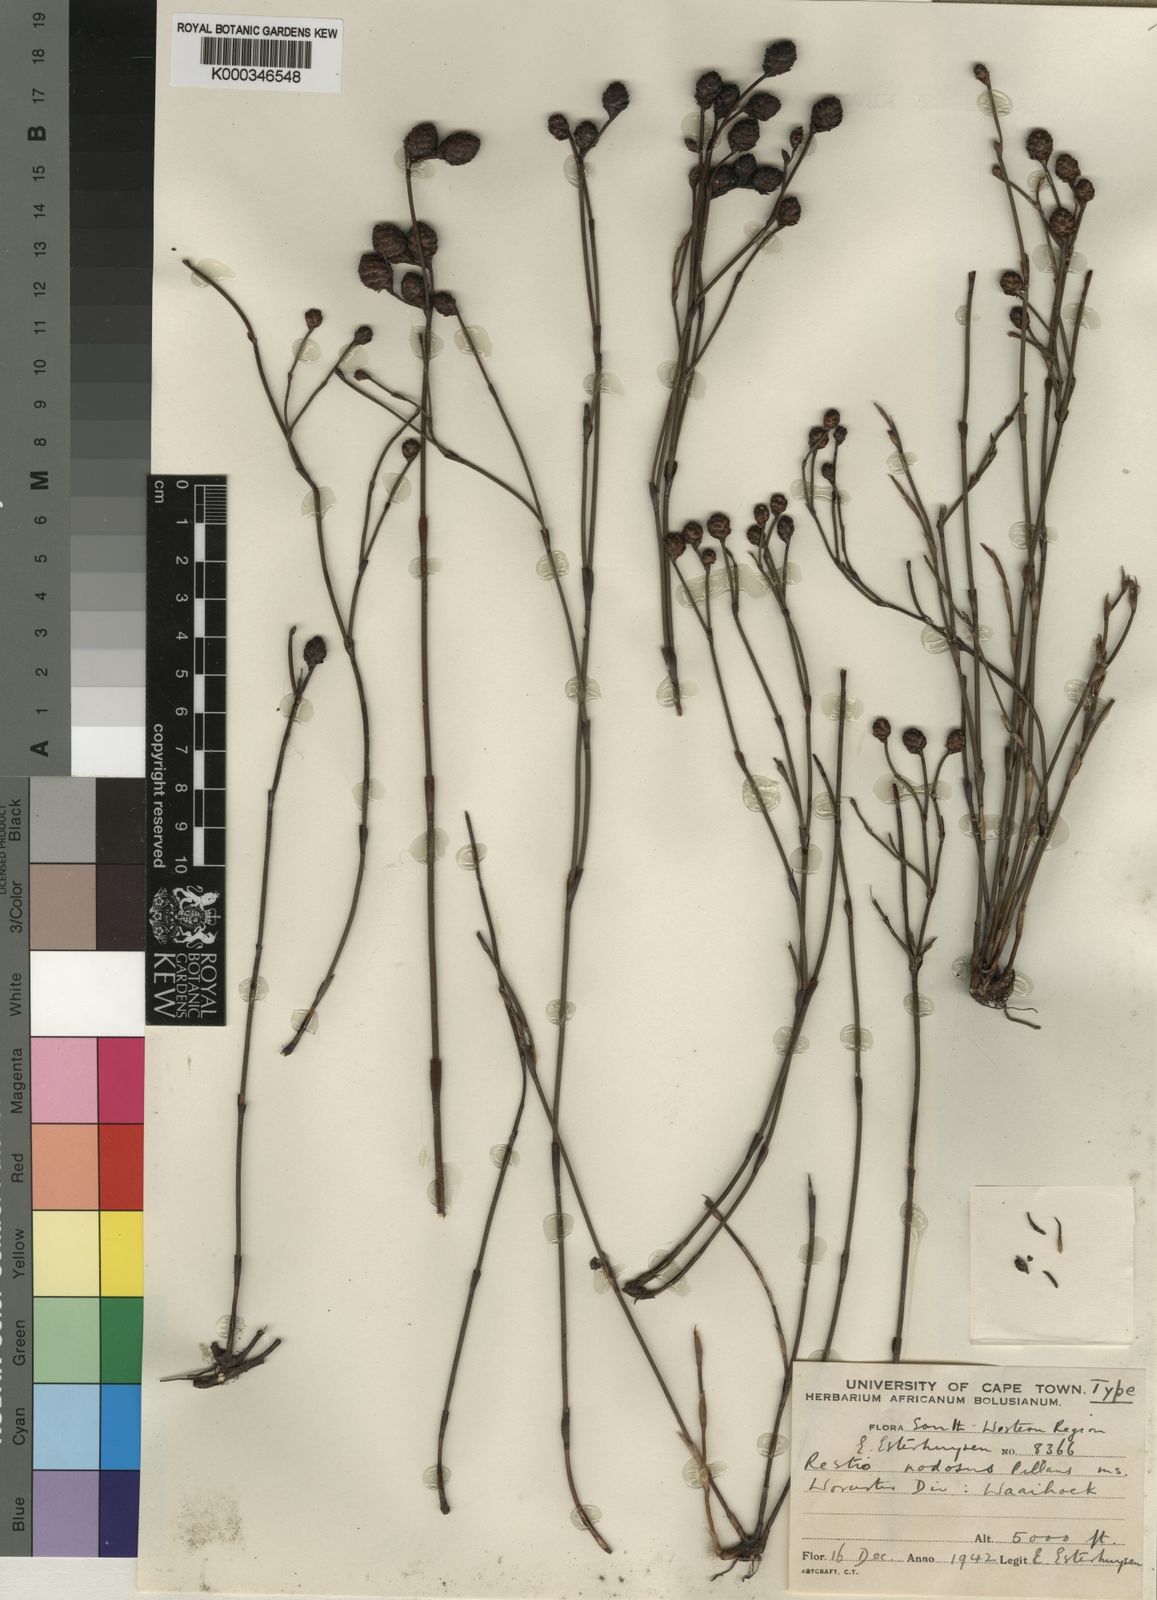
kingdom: Plantae
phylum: Tracheophyta
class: Liliopsida
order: Poales
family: Restionaceae
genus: Restio
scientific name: Restio nodosus
